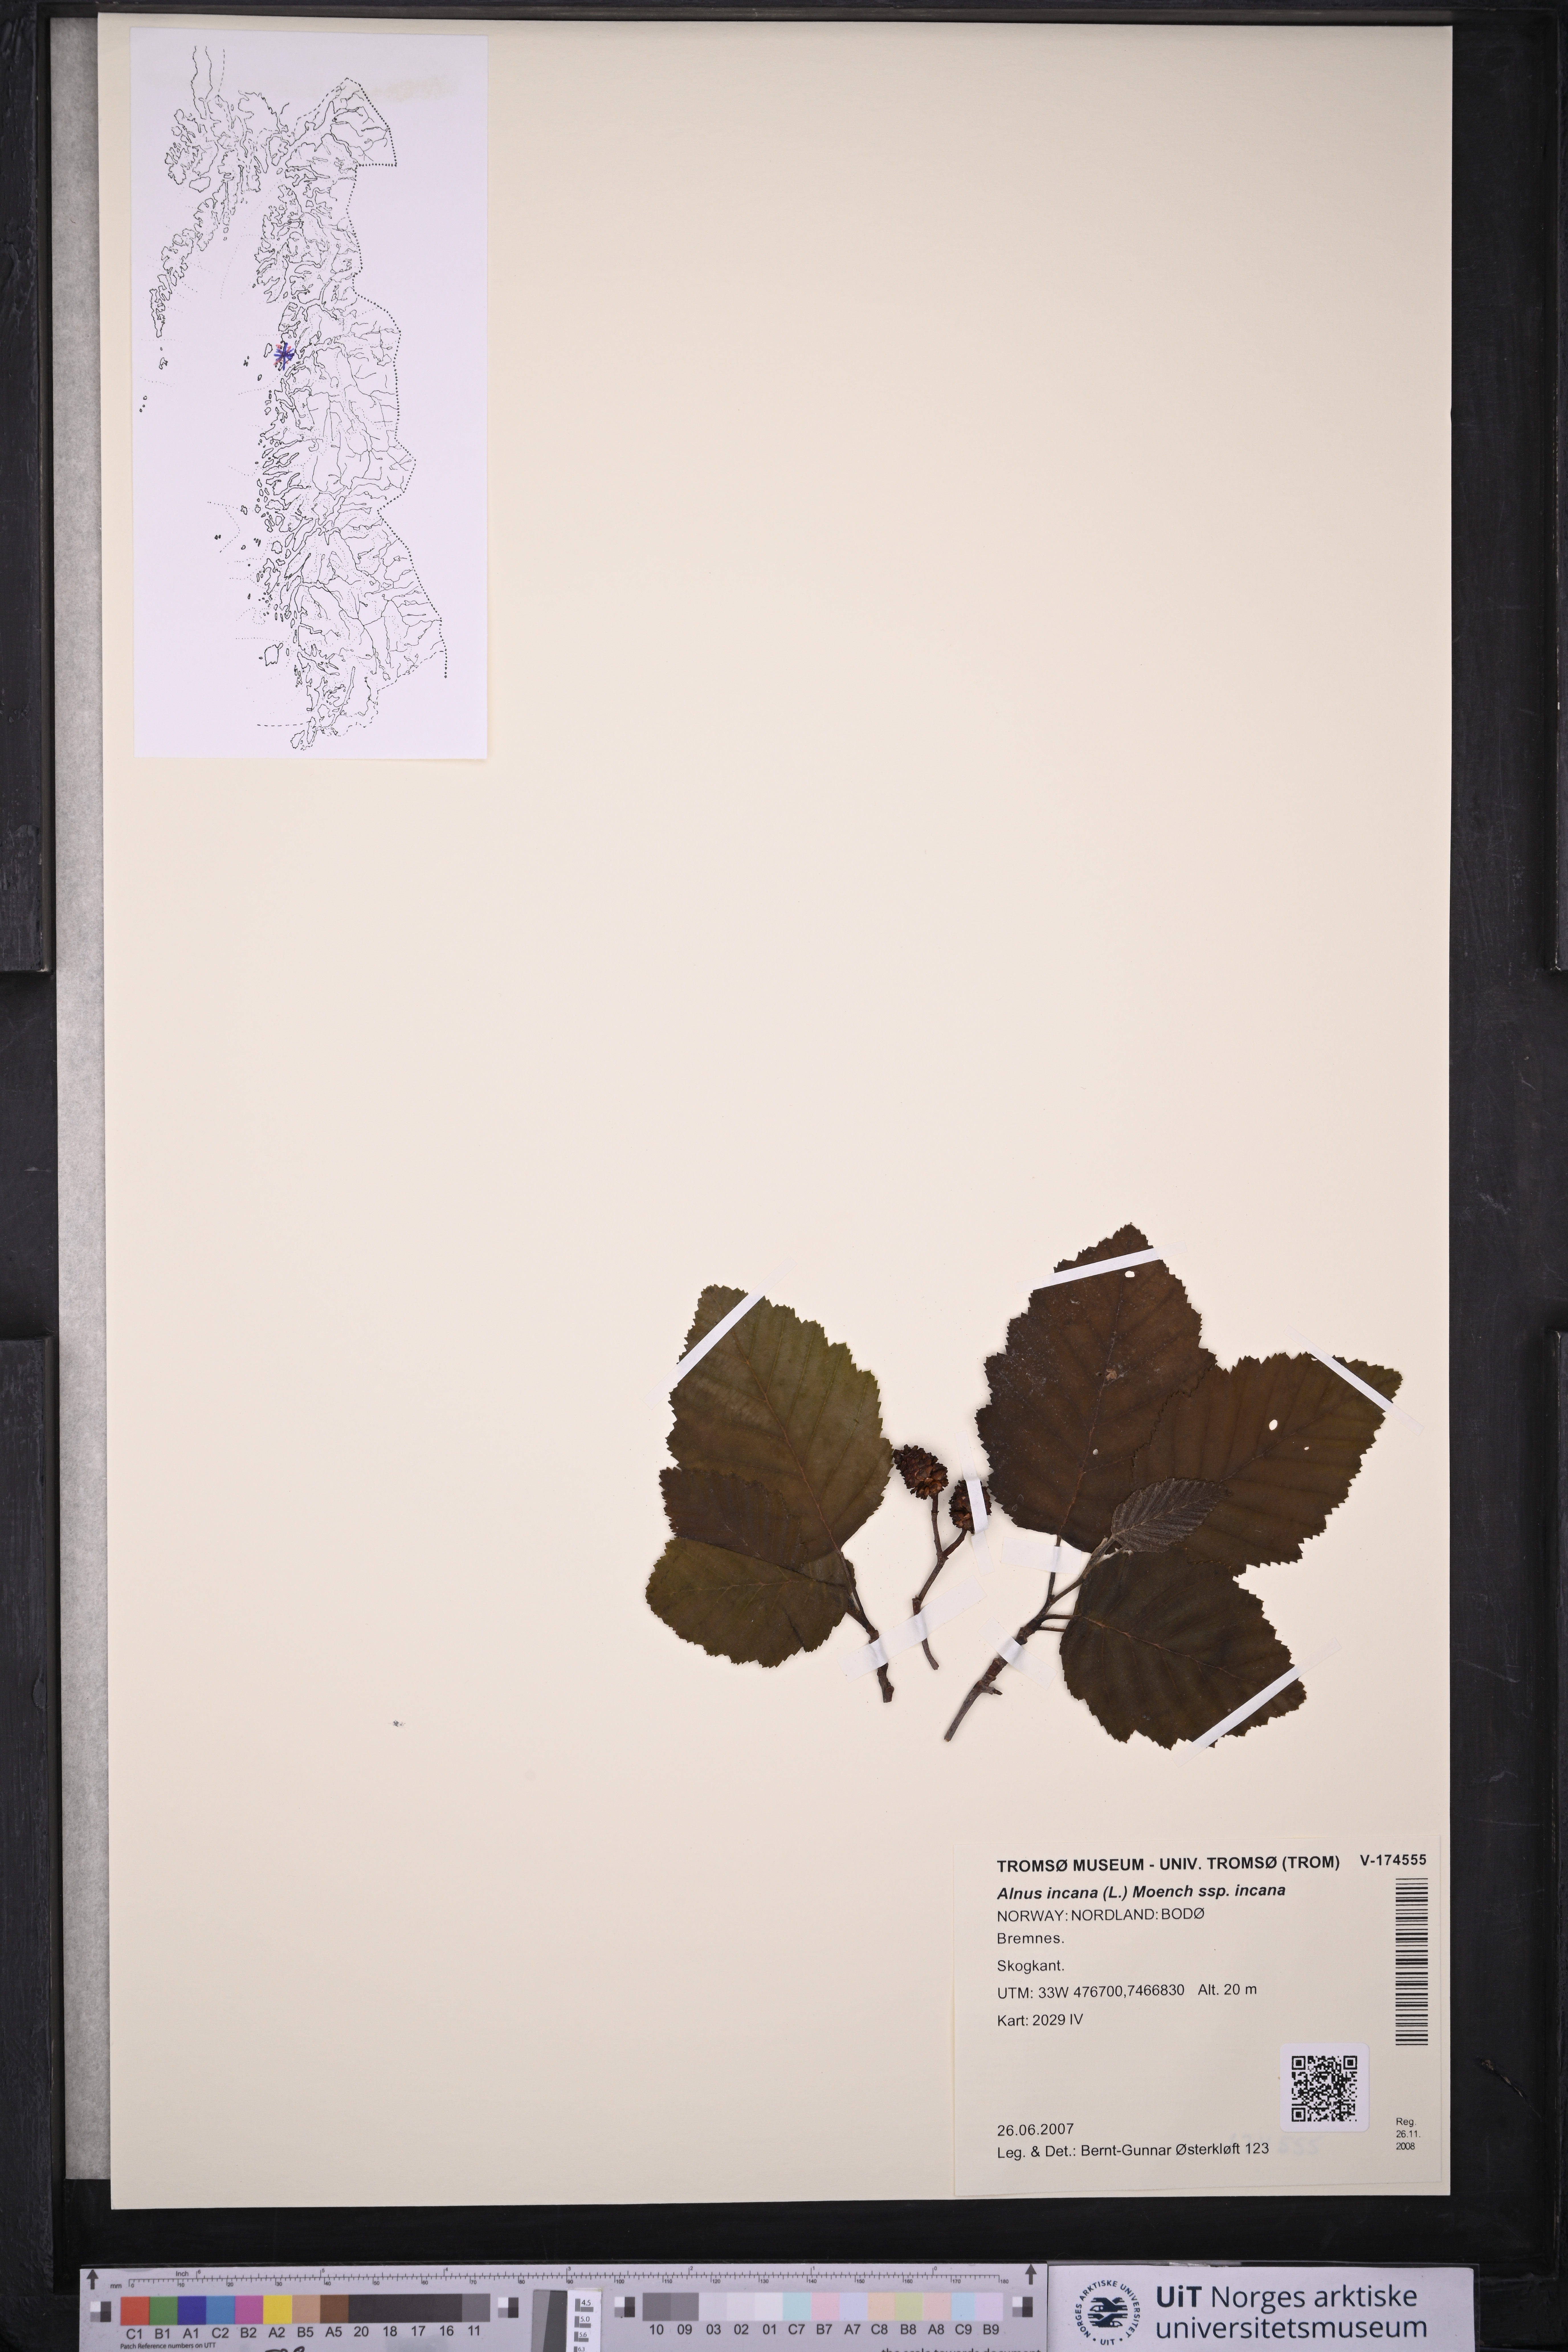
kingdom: Plantae
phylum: Tracheophyta
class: Magnoliopsida
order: Fagales
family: Betulaceae
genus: Alnus
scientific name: Alnus incana
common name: Grey alder
